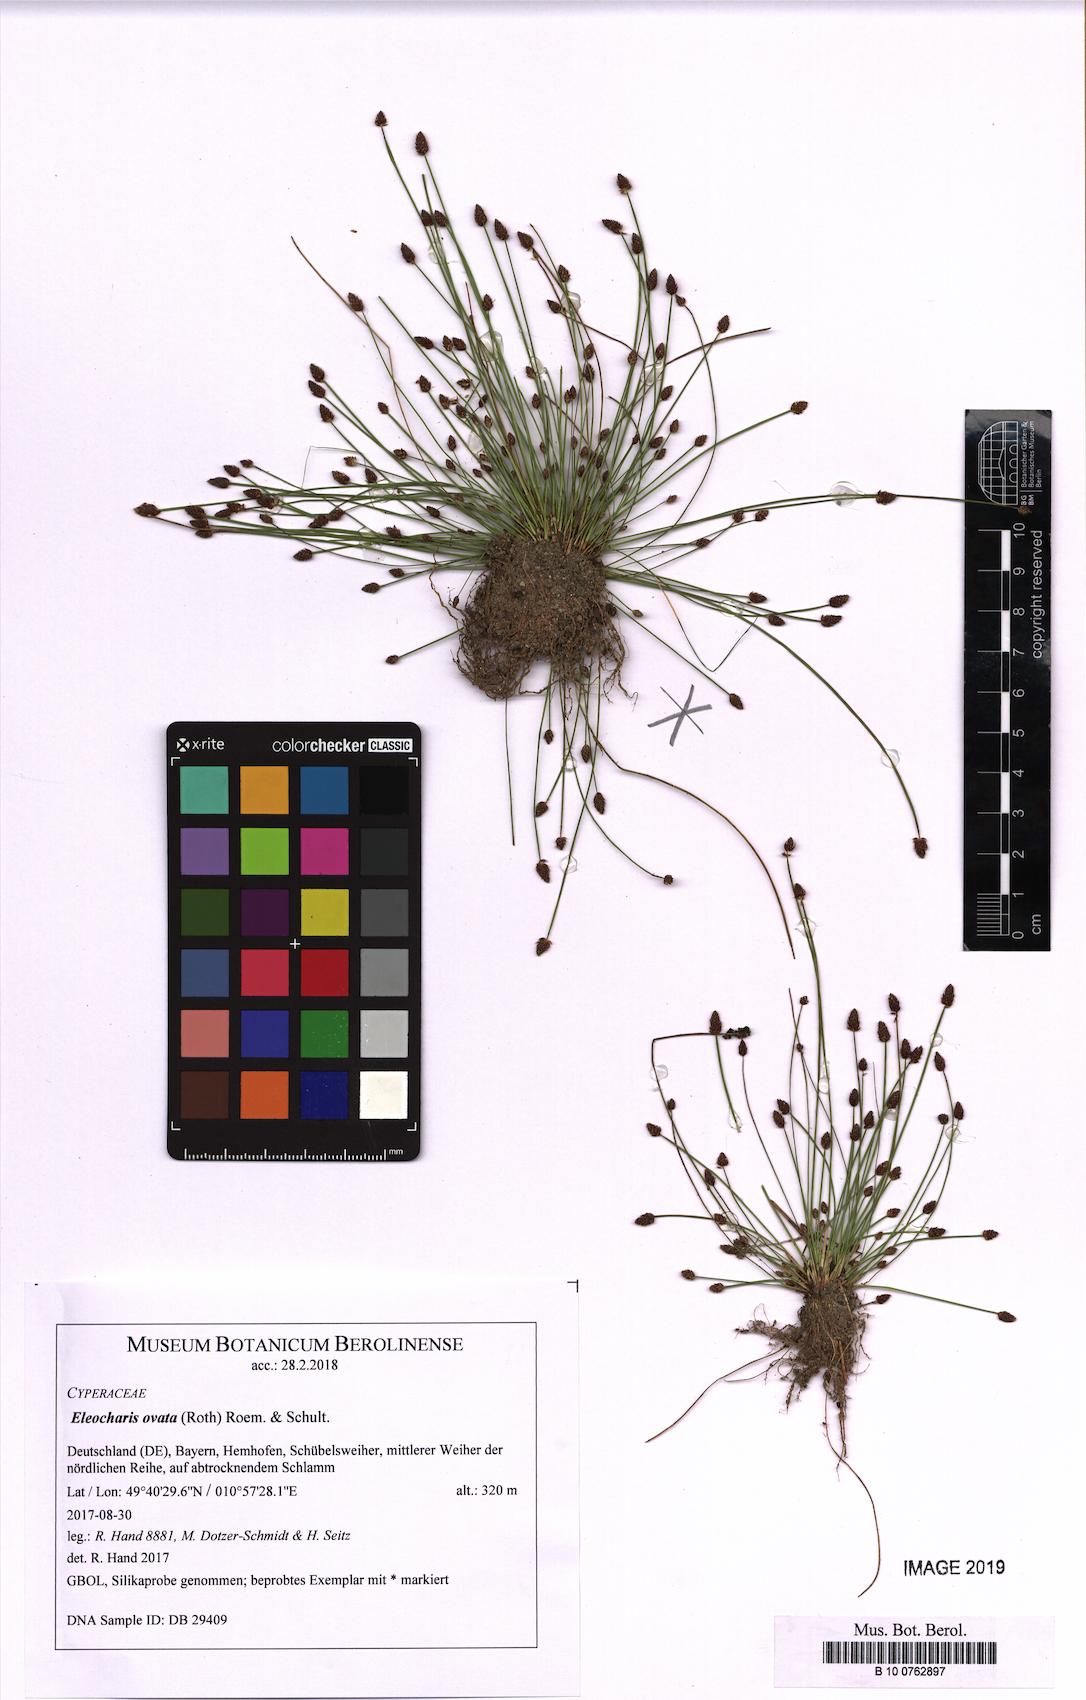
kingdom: Plantae
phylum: Tracheophyta
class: Liliopsida
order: Poales
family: Cyperaceae
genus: Eleocharis
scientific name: Eleocharis ovata
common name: Oval spike-rush
